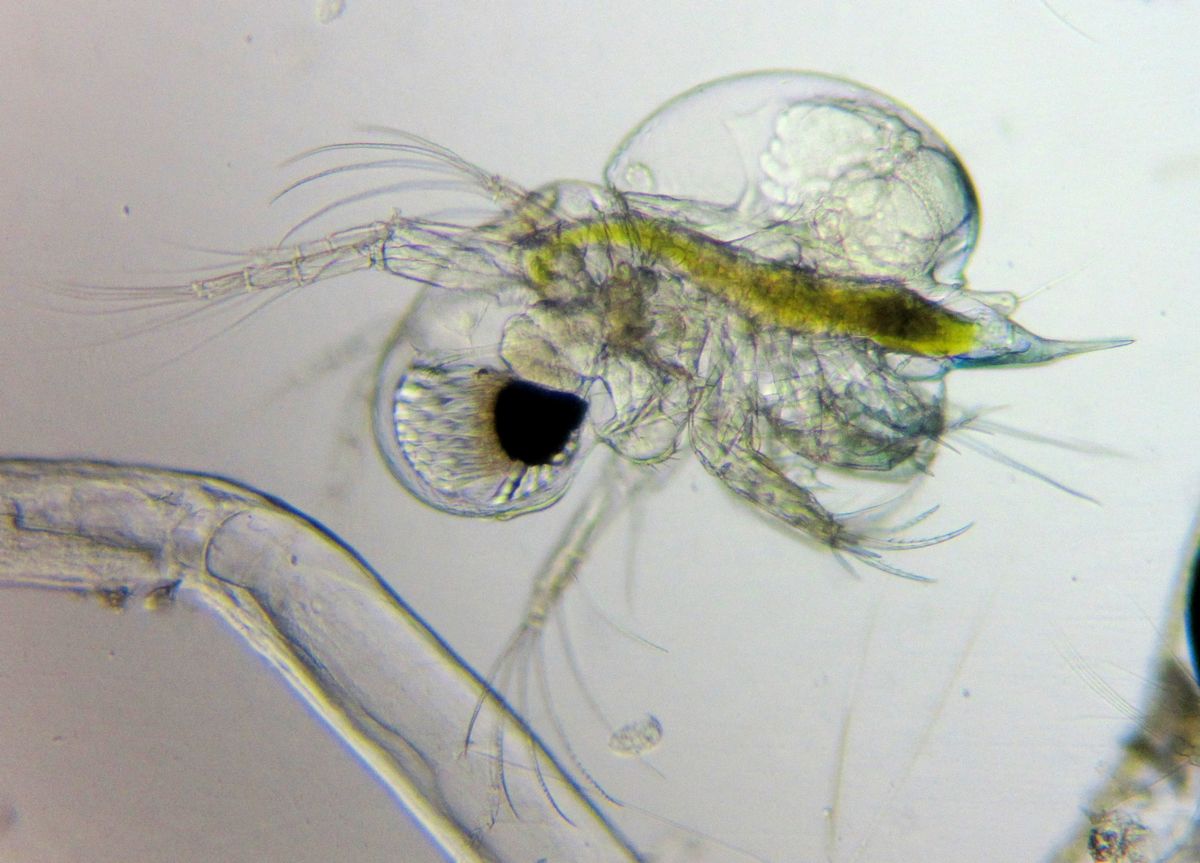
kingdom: Animalia
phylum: Arthropoda
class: Branchiopoda
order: Diplostraca
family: Podonidae
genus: Podon
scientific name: Podon leuckarti
